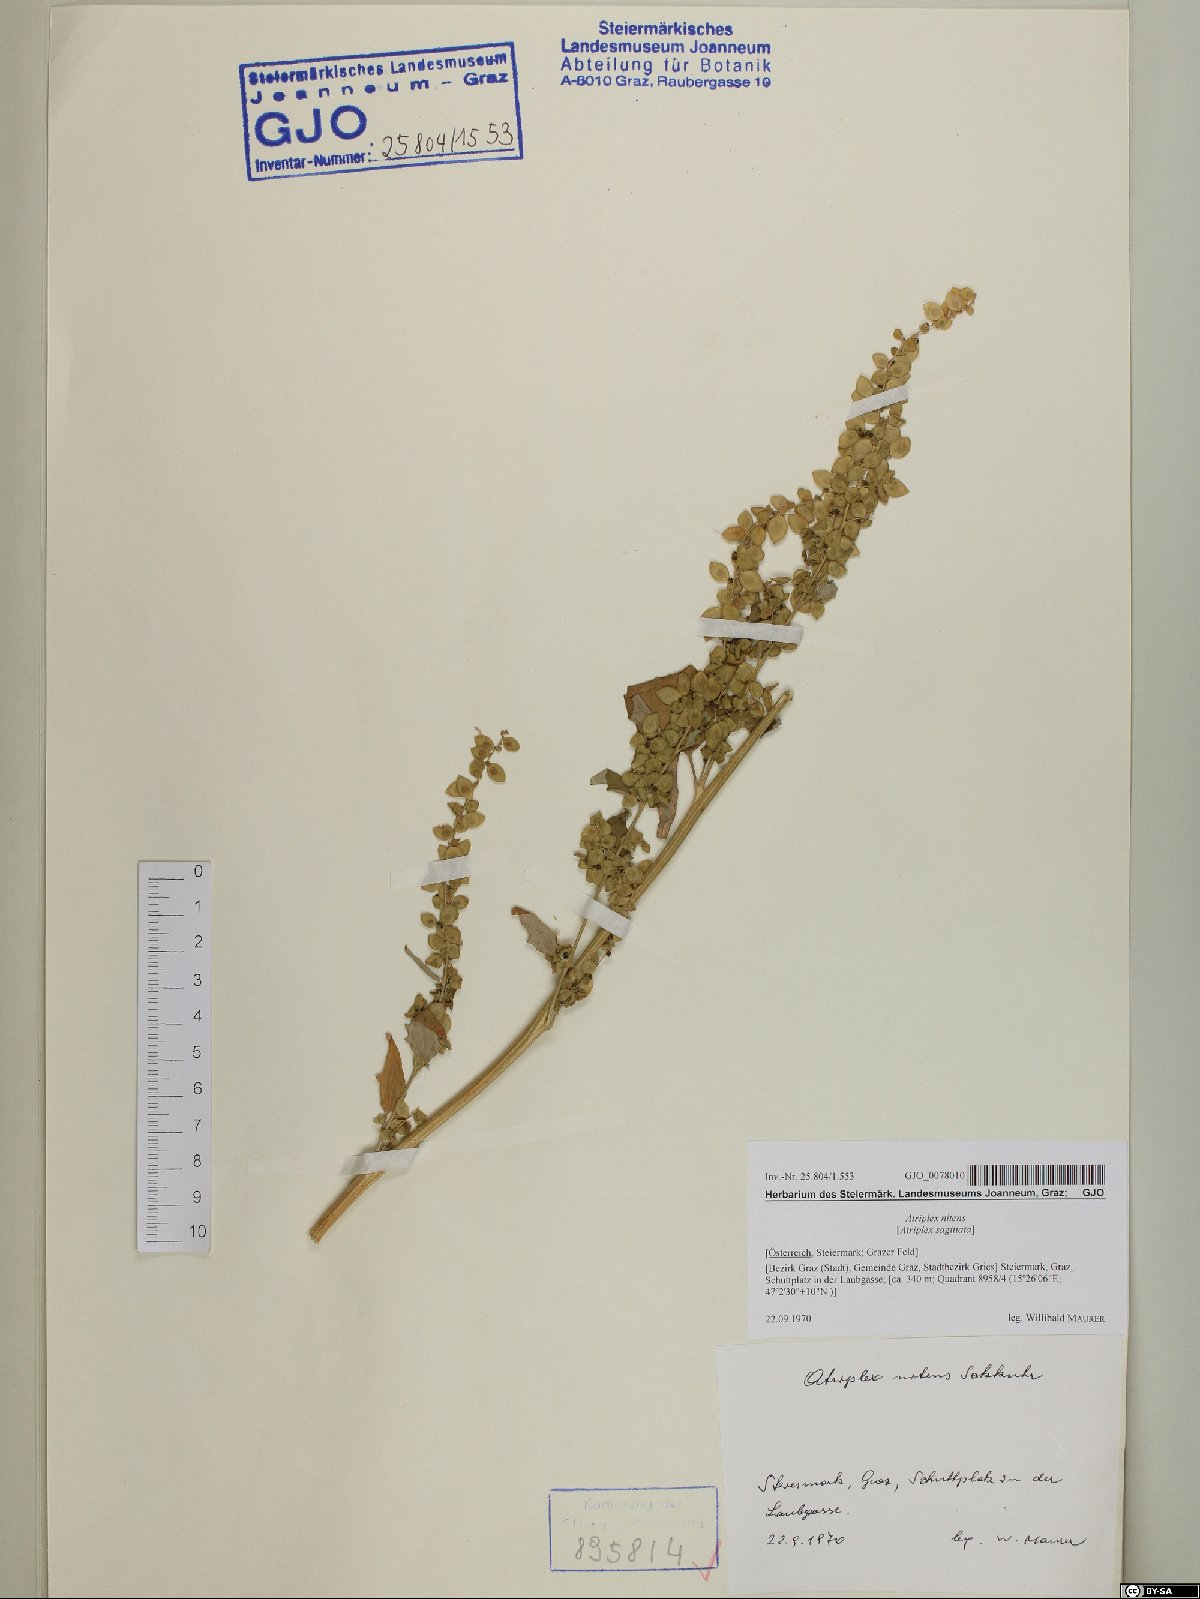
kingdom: Plantae
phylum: Tracheophyta
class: Magnoliopsida
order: Caryophyllales
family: Amaranthaceae
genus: Atriplex
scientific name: Atriplex sagittata
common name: Purple orache
